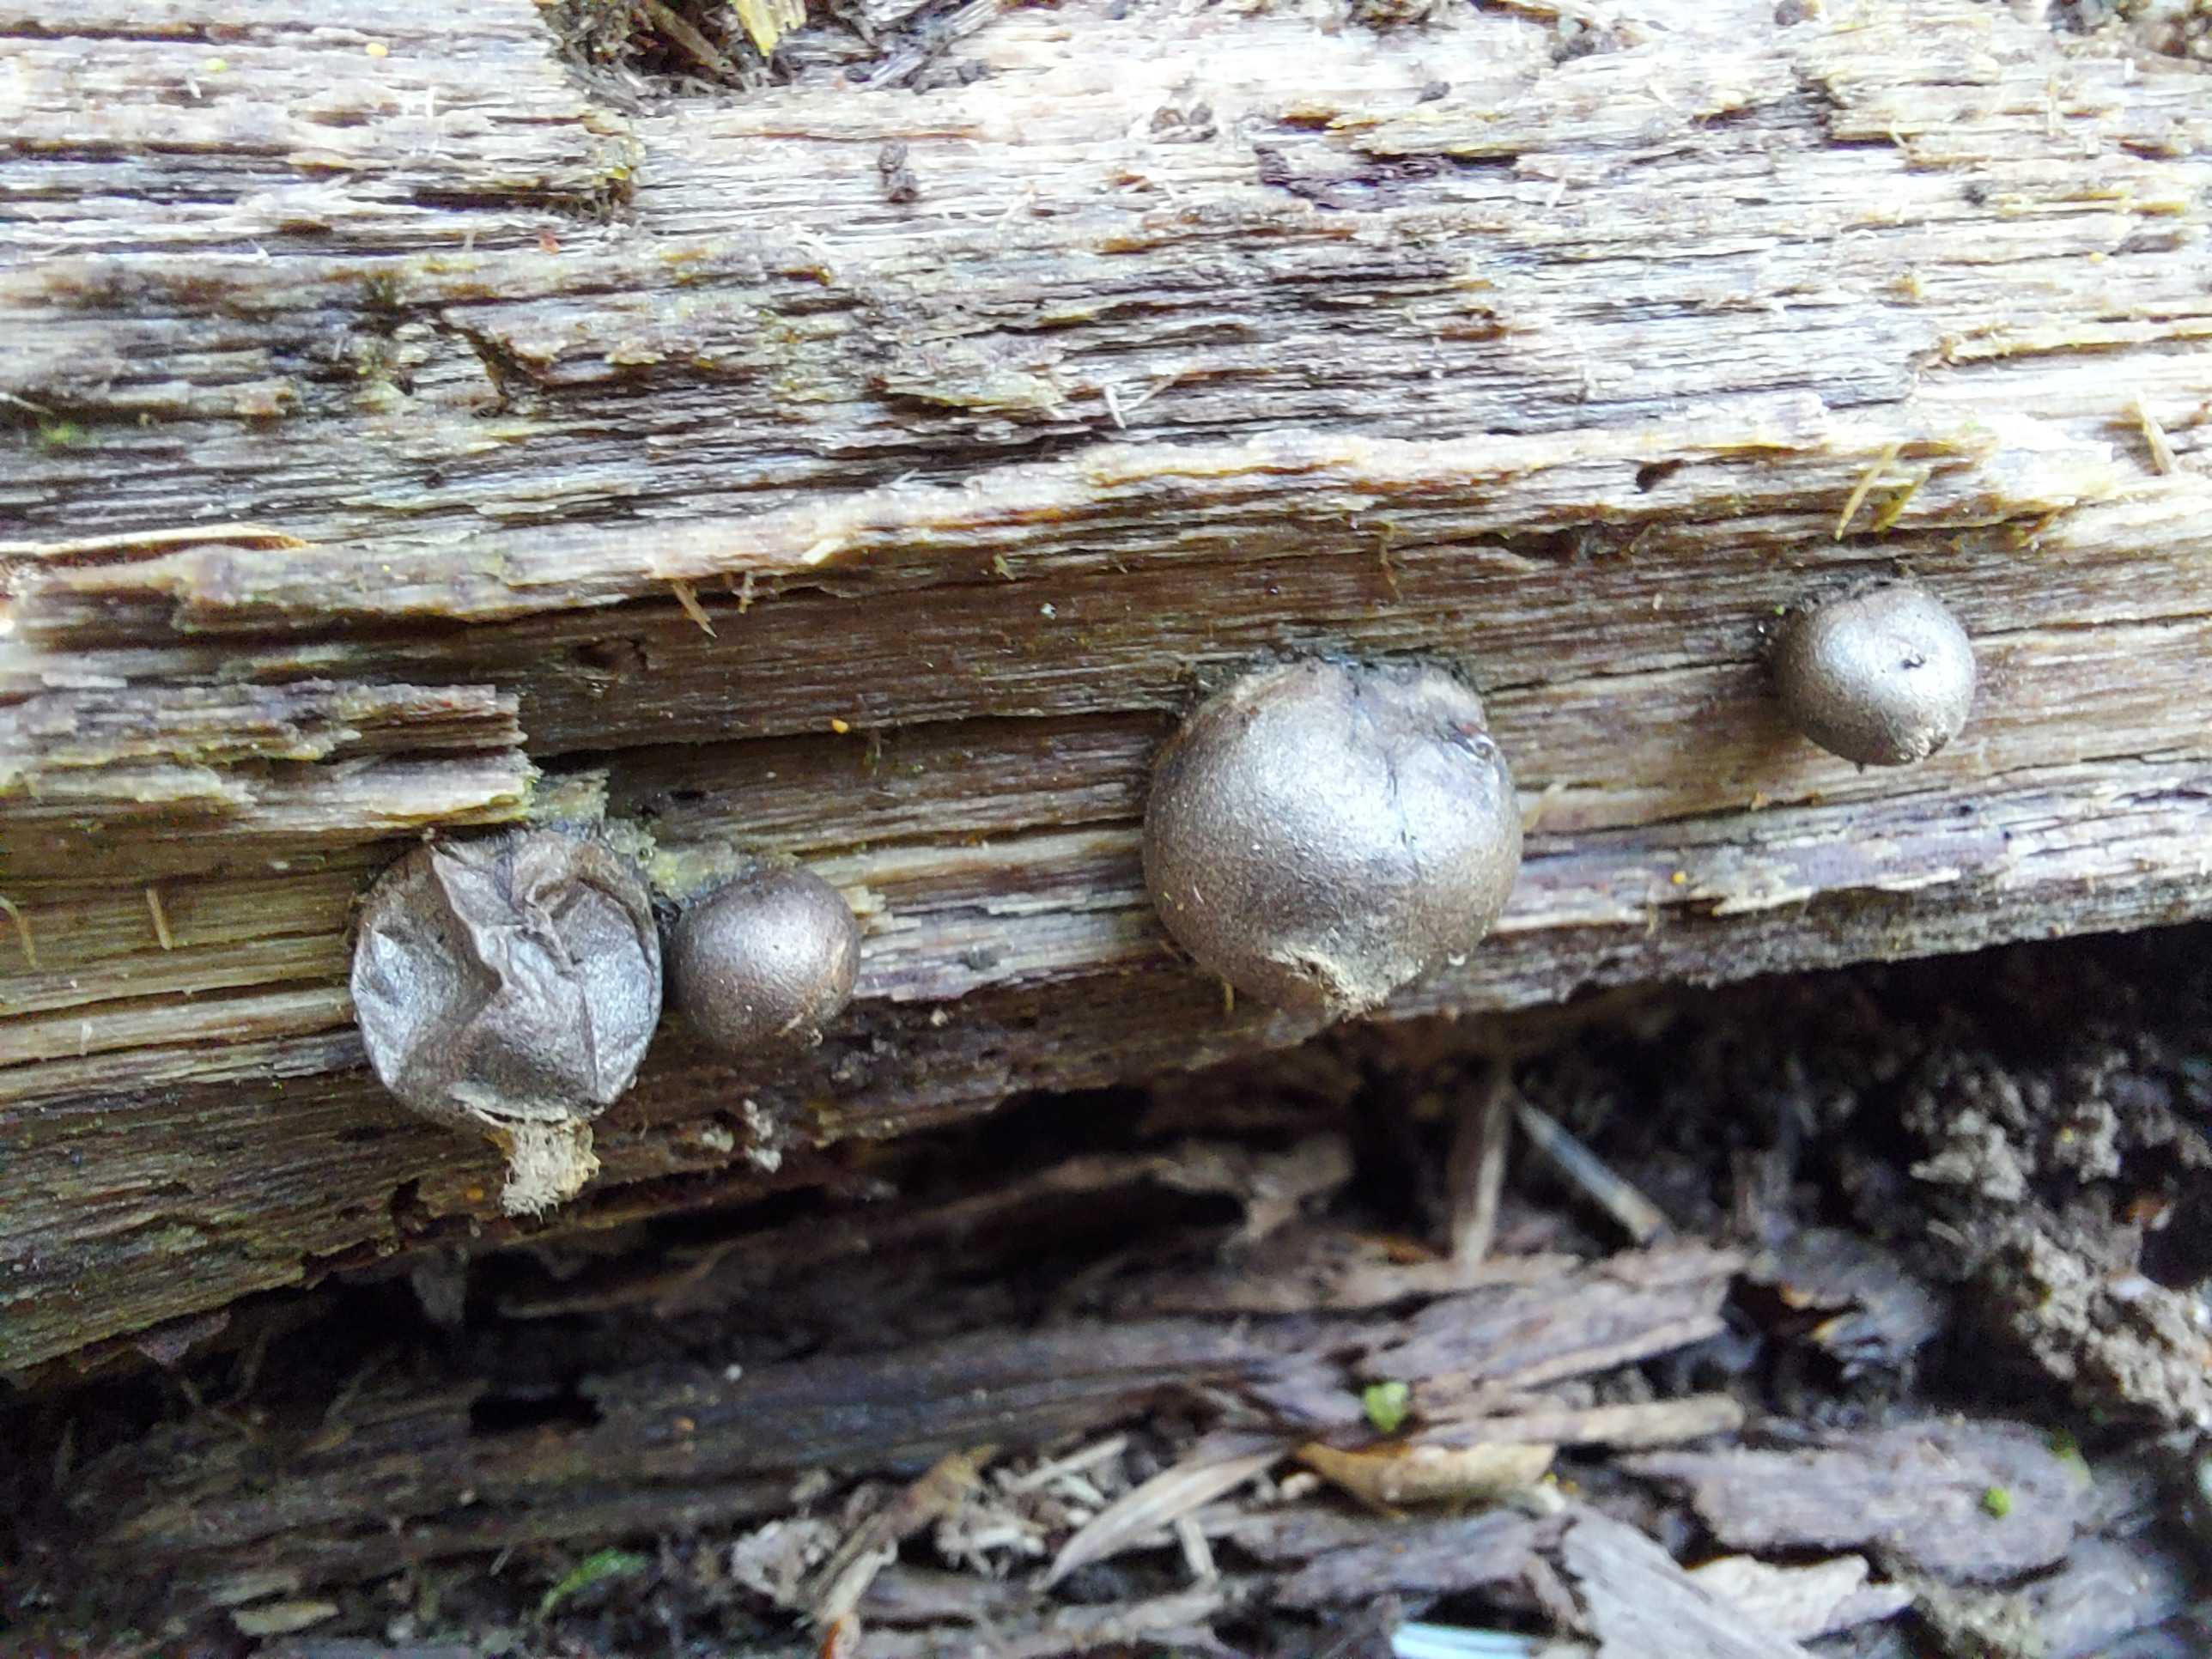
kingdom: Protozoa
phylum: Mycetozoa
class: Myxomycetes
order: Cribrariales
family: Tubiferaceae
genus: Lycogala
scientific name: Lycogala epidendrum
